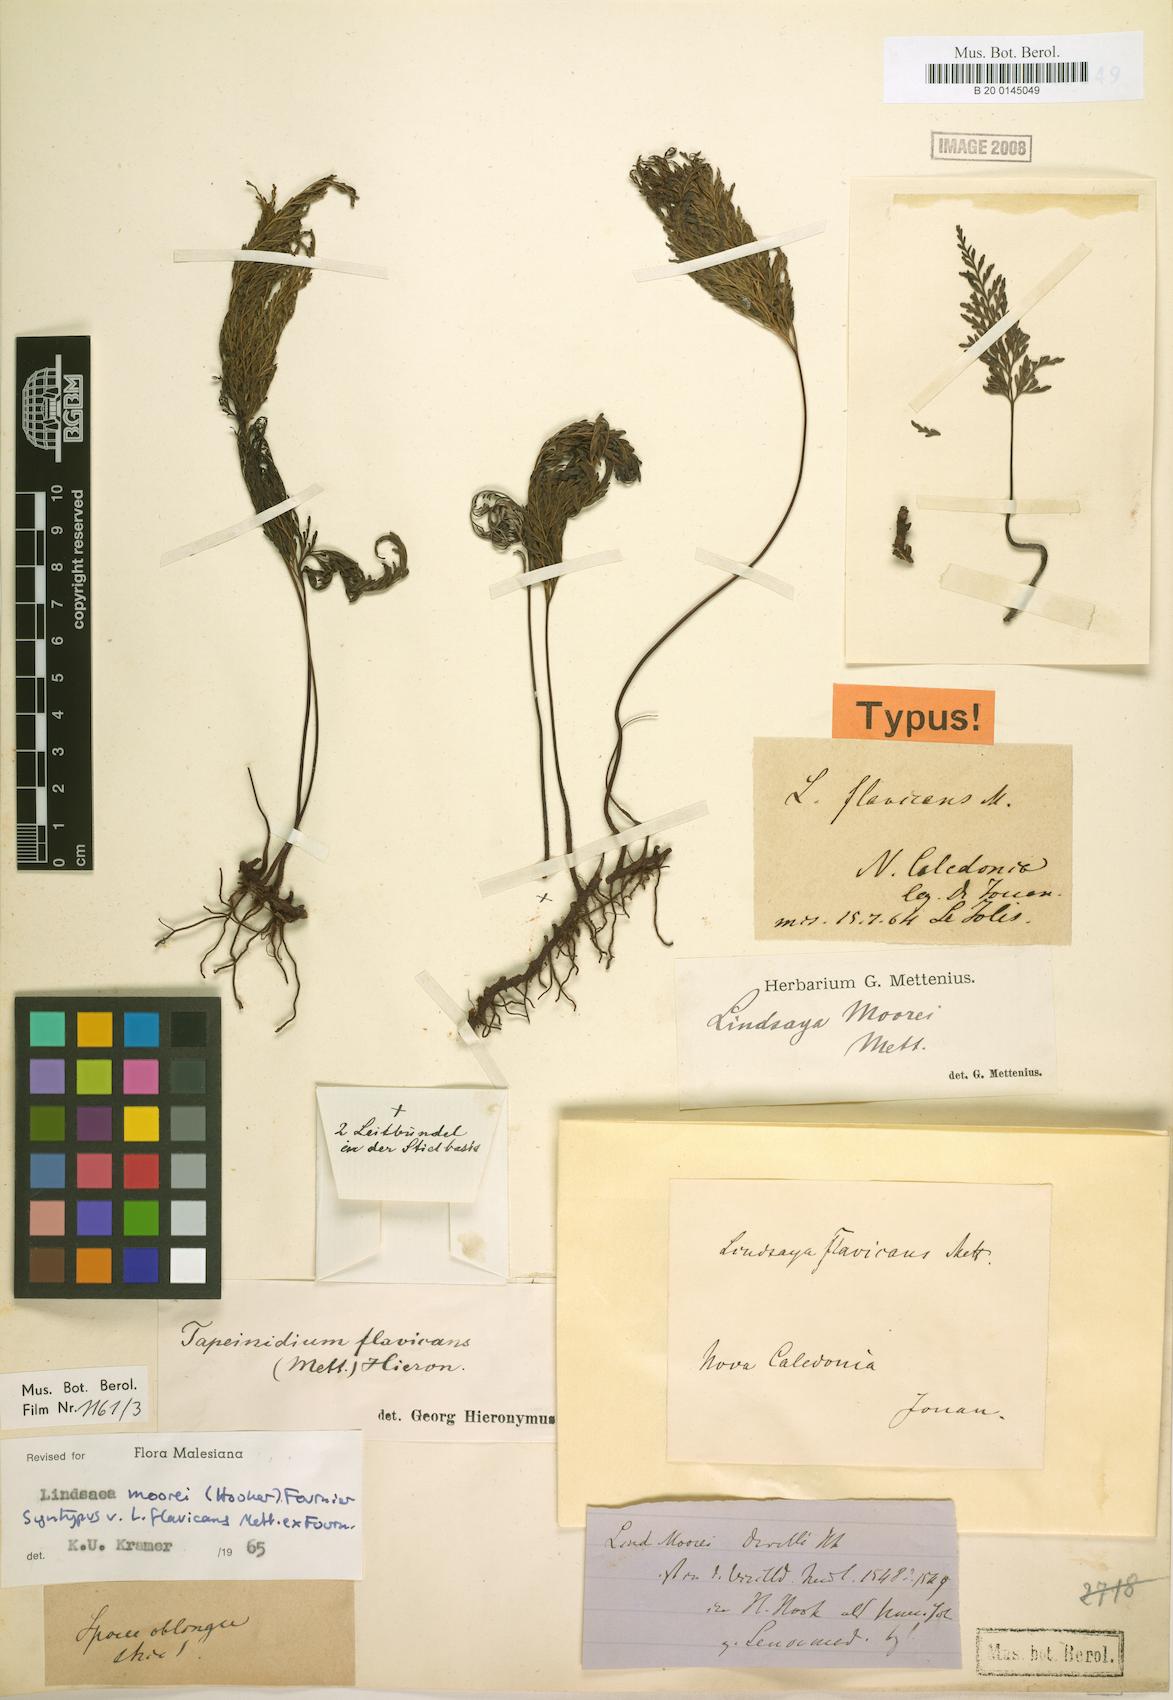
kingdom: Plantae
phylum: Tracheophyta
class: Polypodiopsida
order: Polypodiales
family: Lindsaeaceae
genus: Tapeinidium
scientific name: Tapeinidium moorei
